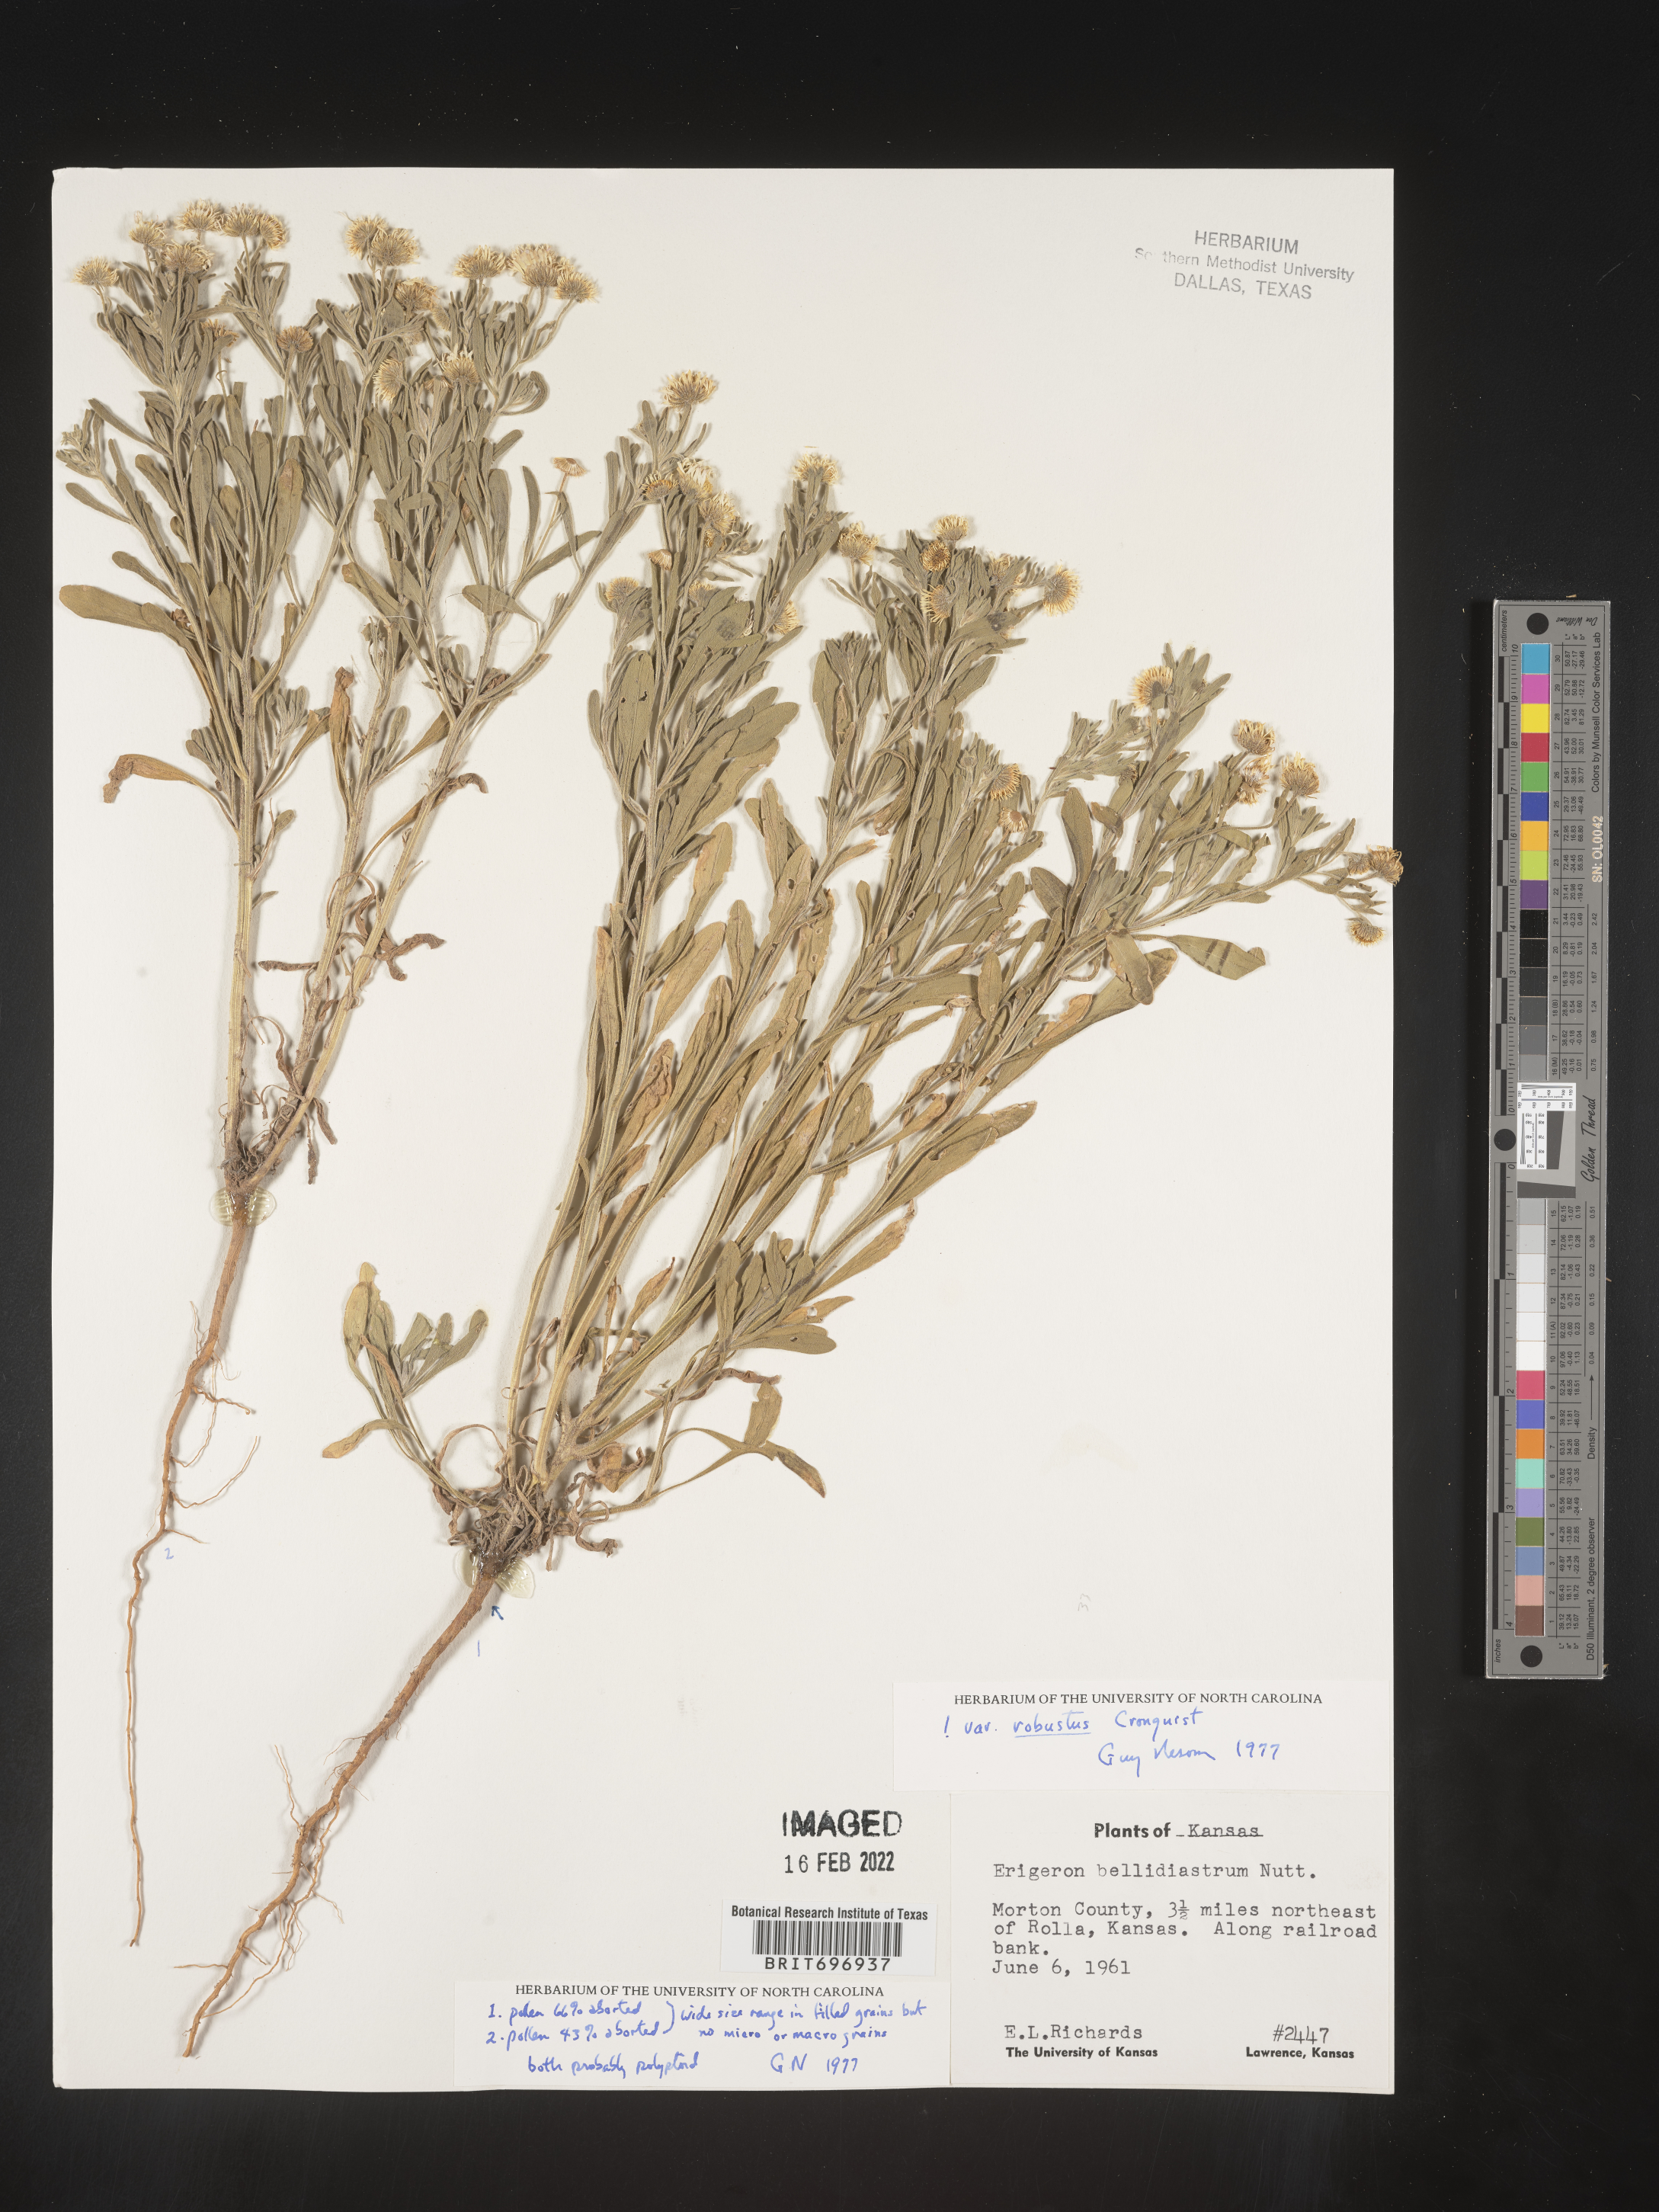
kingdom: Plantae
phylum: Tracheophyta
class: Magnoliopsida
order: Asterales
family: Asteraceae
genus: Erigeron
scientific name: Erigeron bellidiastrum
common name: Sand fleabane
